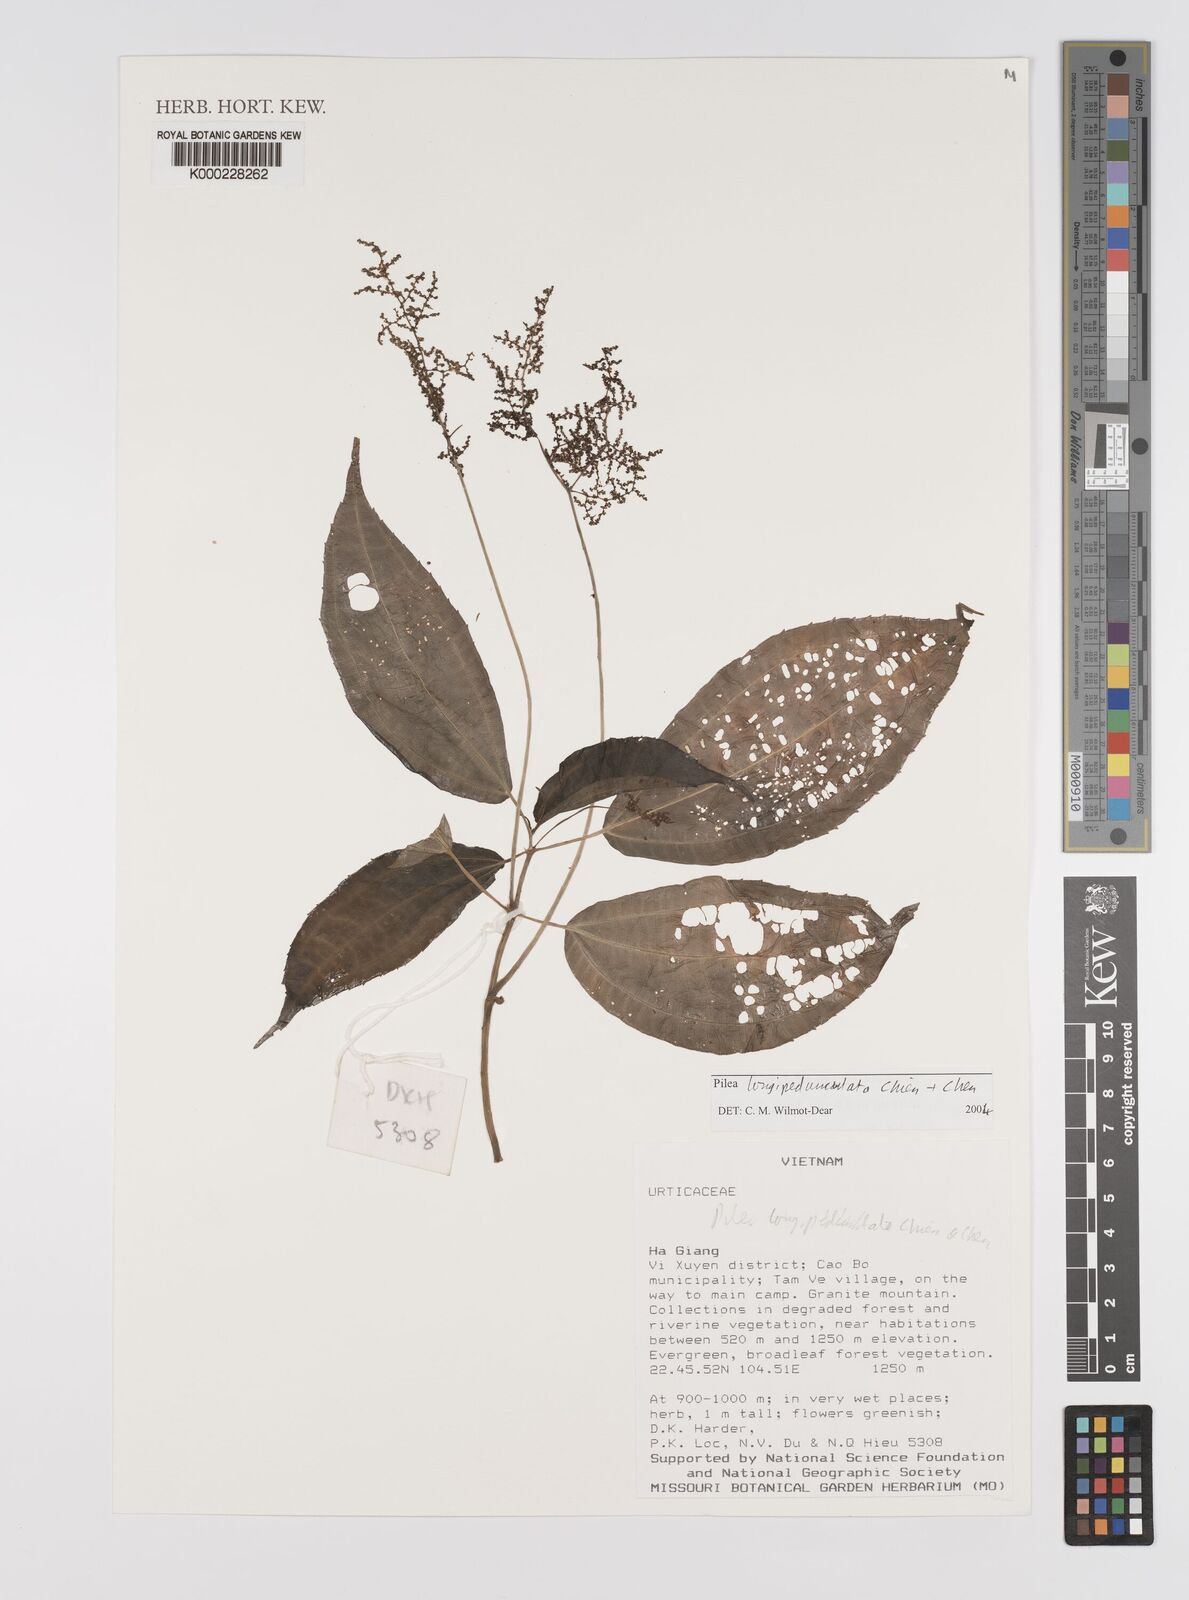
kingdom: Plantae
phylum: Tracheophyta
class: Magnoliopsida
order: Rosales
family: Urticaceae
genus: Pilea
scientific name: Pilea
